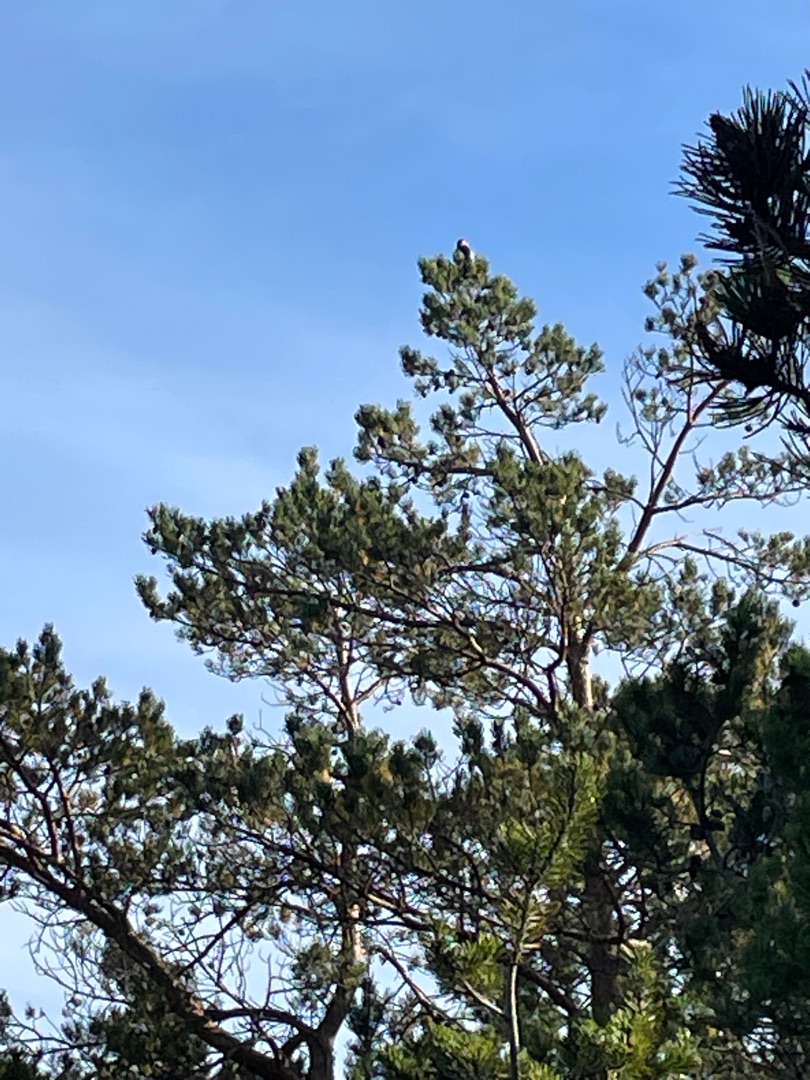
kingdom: Animalia
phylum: Chordata
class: Aves
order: Piciformes
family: Picidae
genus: Dendrocopos
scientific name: Dendrocopos major
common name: Stor flagspætte
